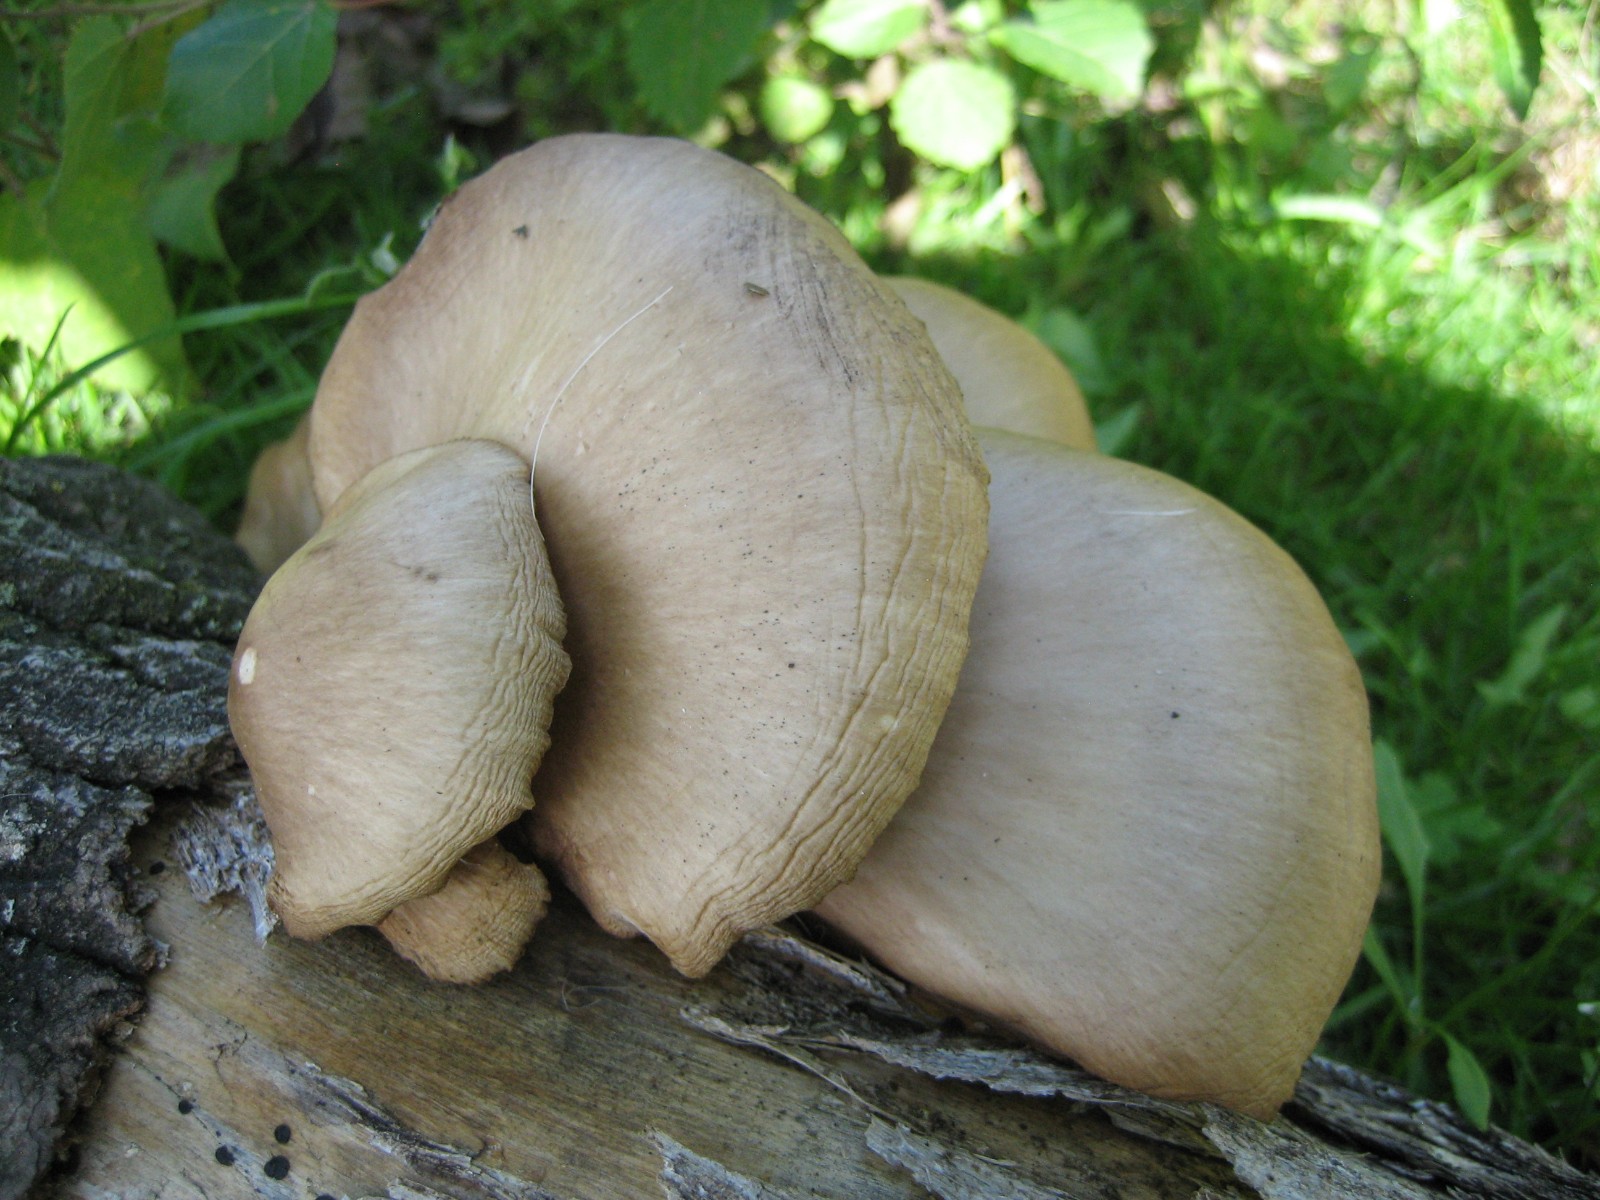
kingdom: Fungi
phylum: Basidiomycota
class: Agaricomycetes
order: Agaricales
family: Pleurotaceae
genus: Pleurotus
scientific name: Pleurotus pulmonarius
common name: sommer-østershat
